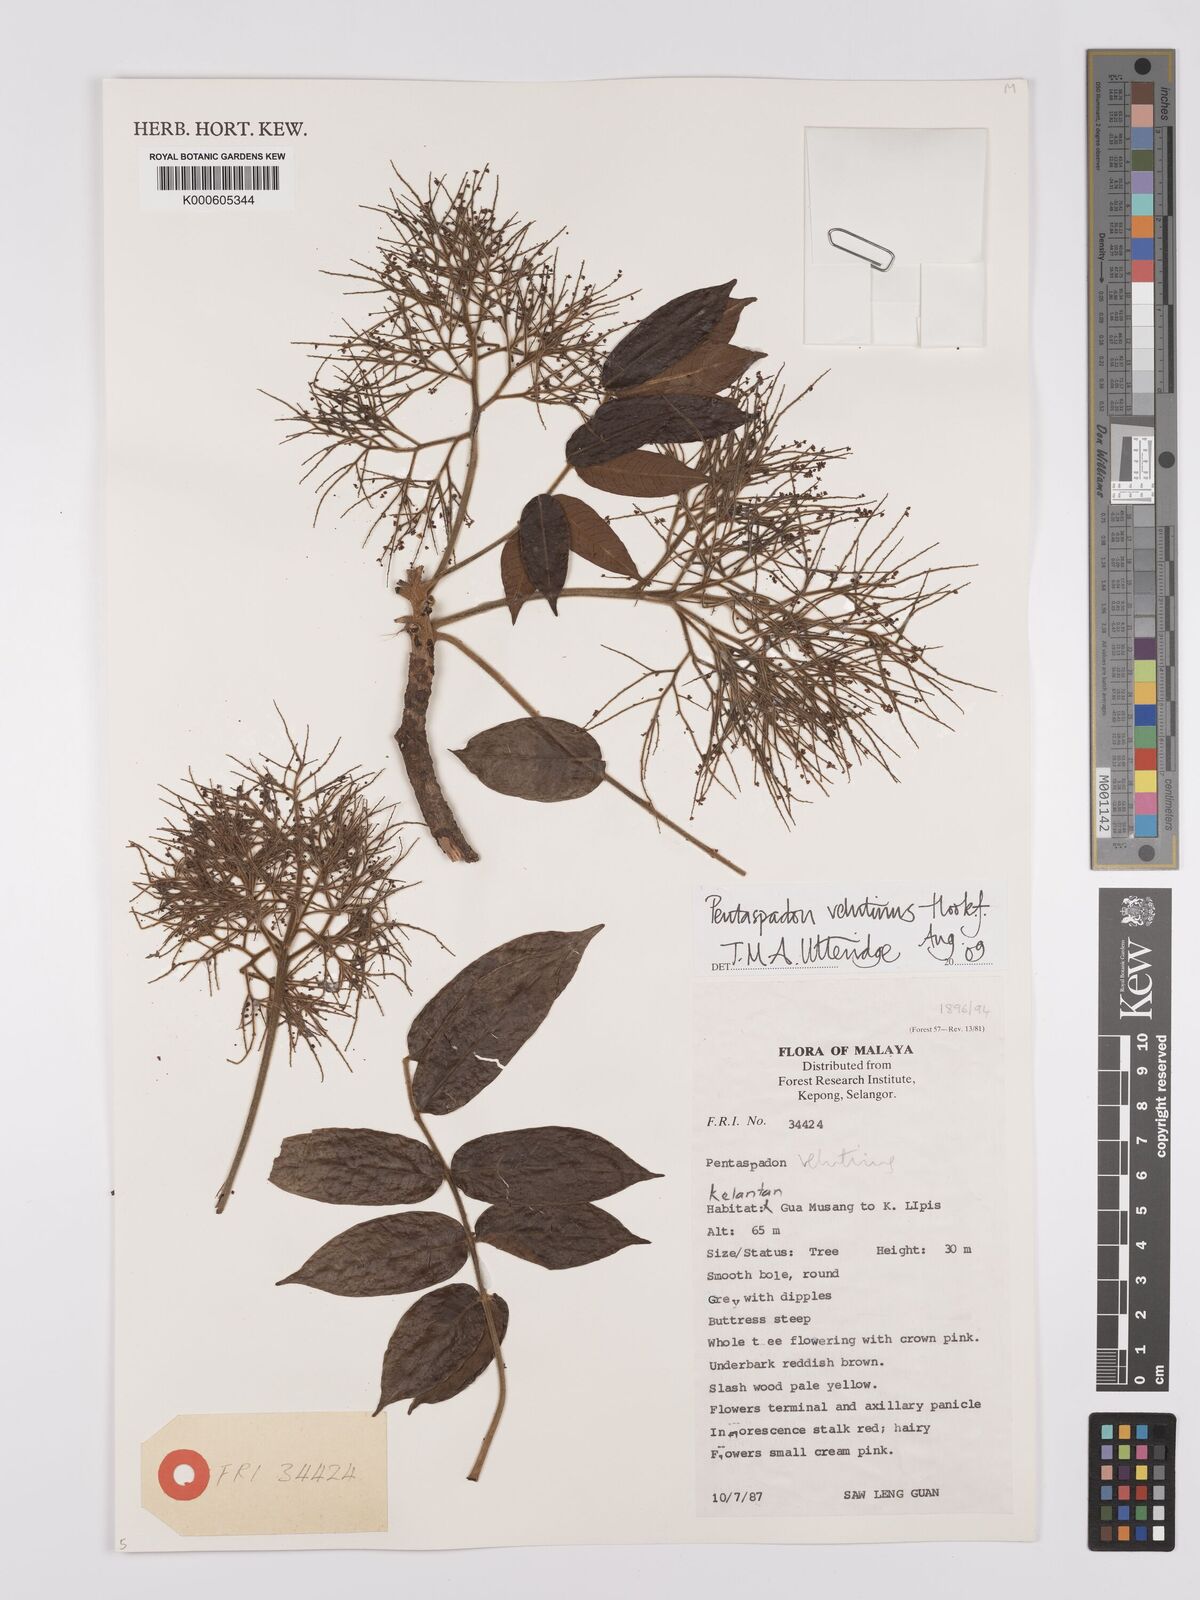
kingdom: Plantae
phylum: Tracheophyta
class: Magnoliopsida
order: Sapindales
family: Anacardiaceae
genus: Pentaspadon
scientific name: Pentaspadon velutinus
